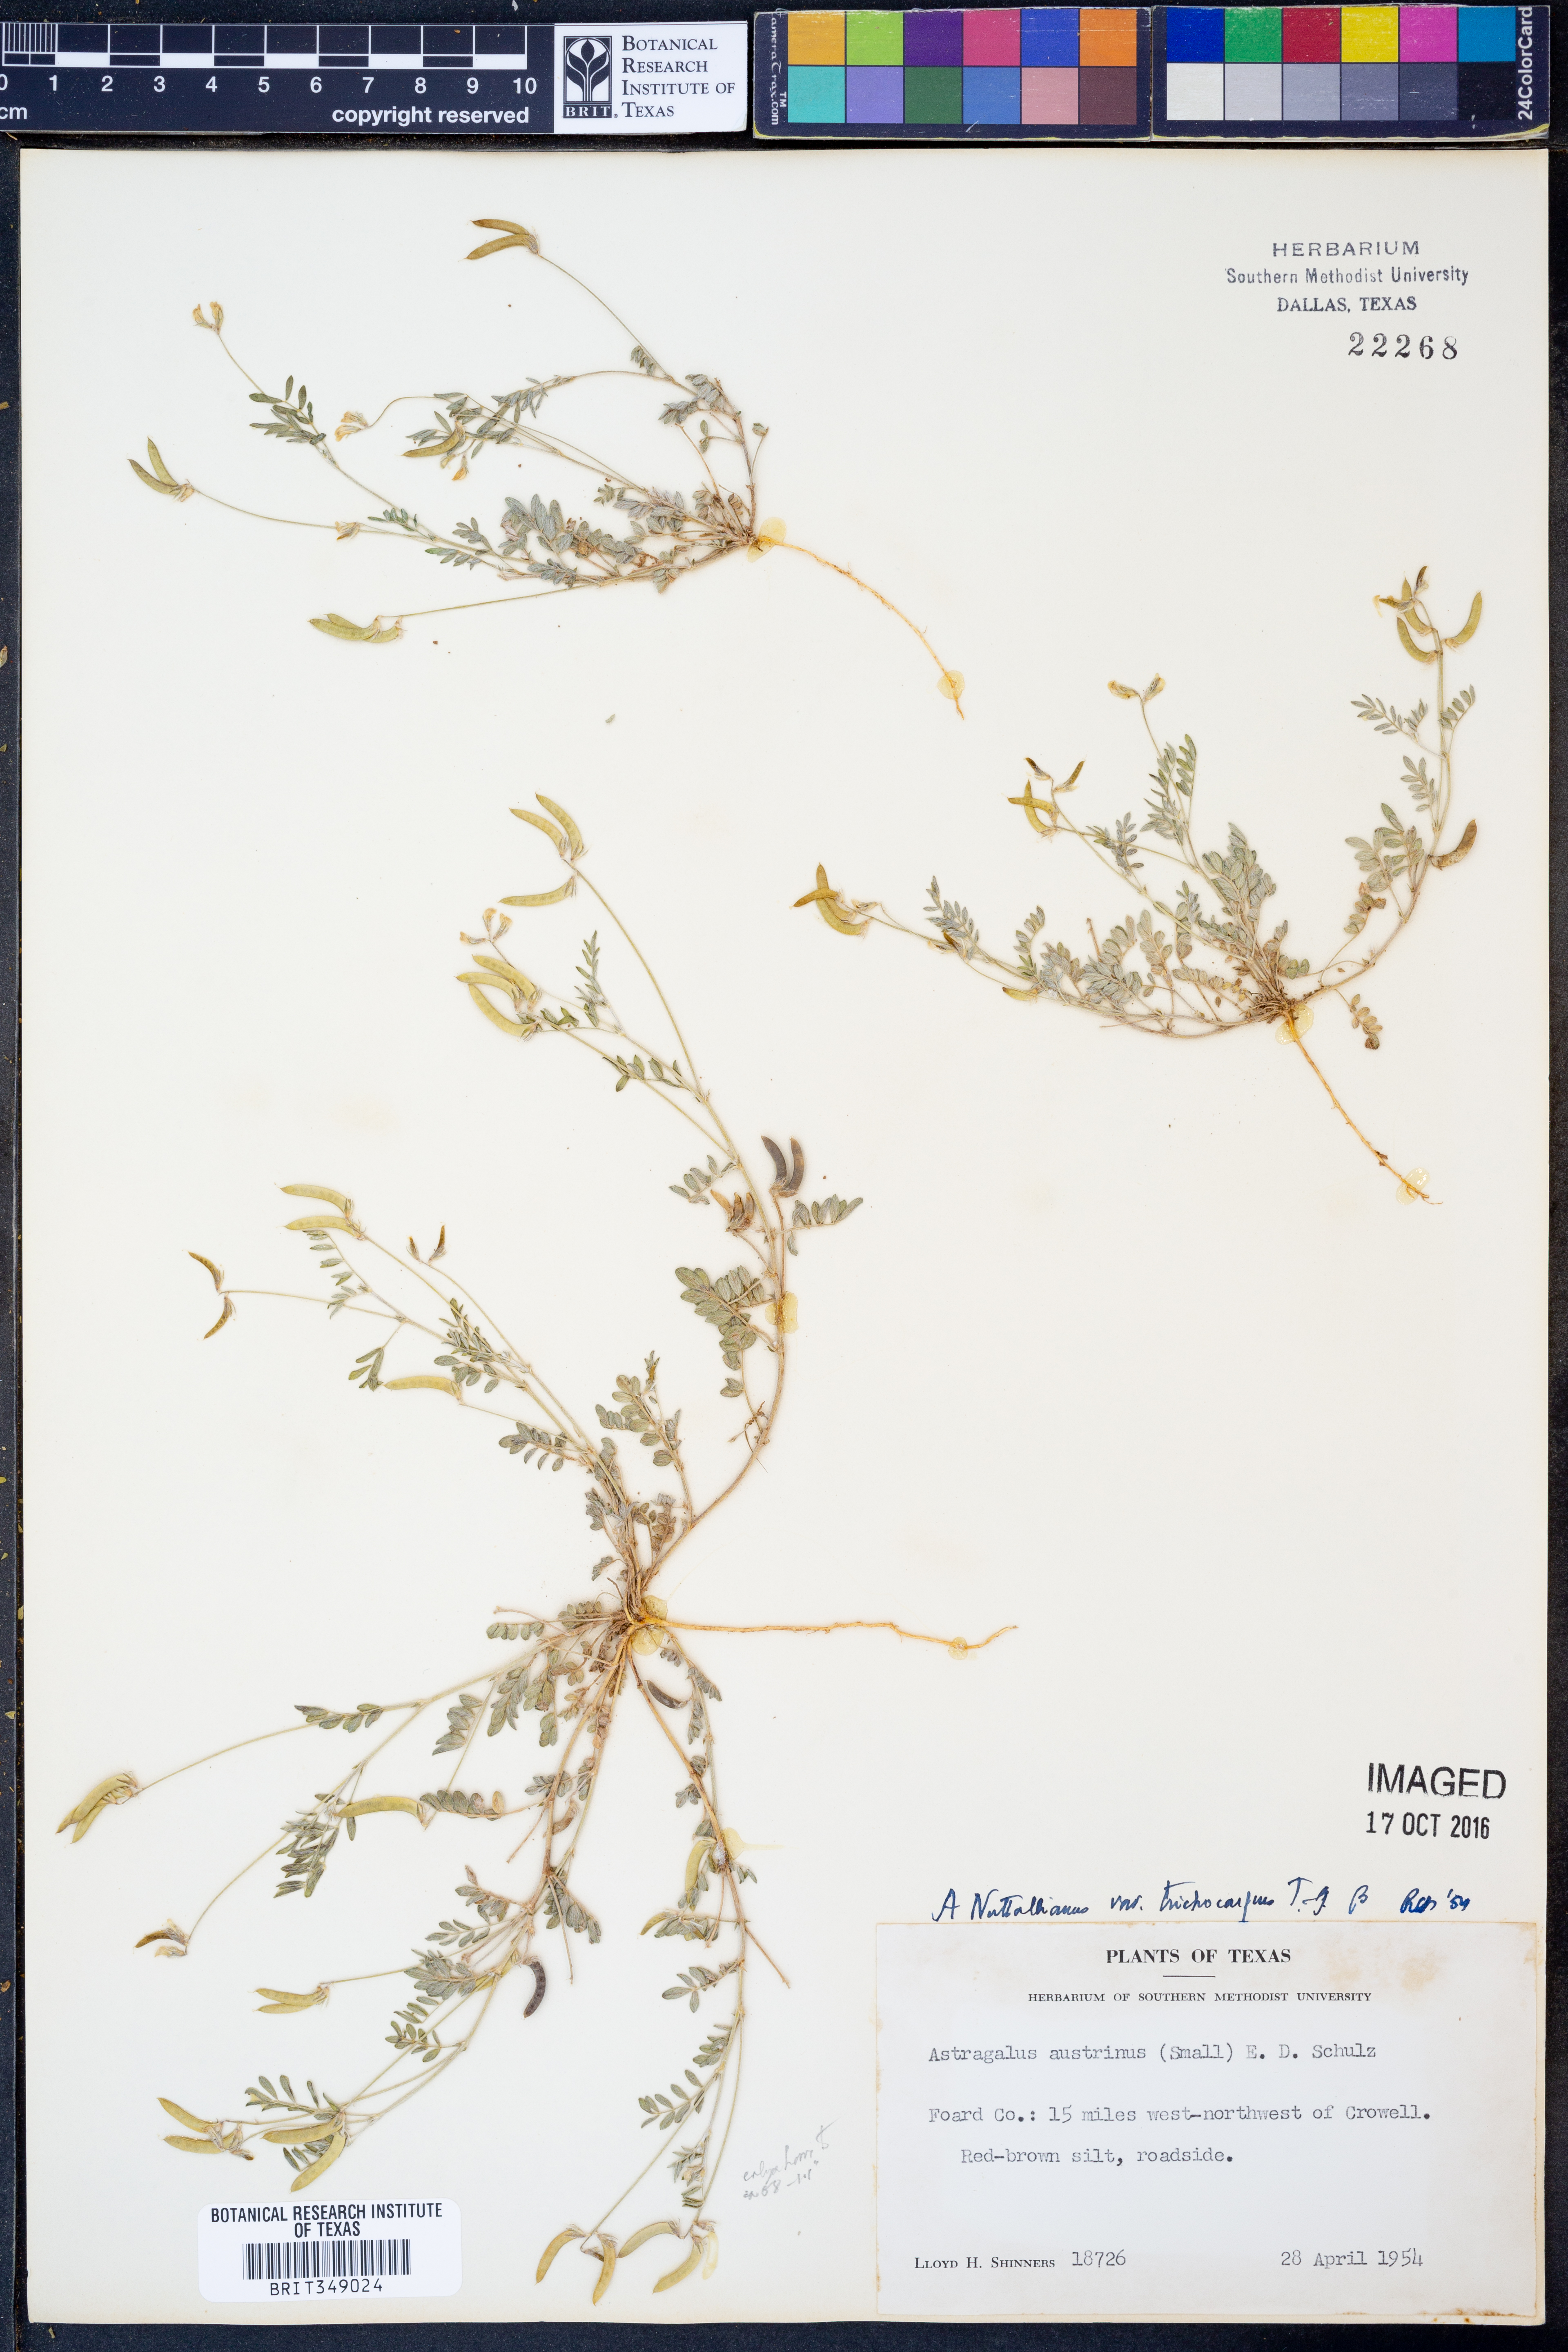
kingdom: Plantae
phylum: Tracheophyta
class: Magnoliopsida
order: Fabales
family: Fabaceae
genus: Astragalus
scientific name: Astragalus nuttallianus
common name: Smallflowered milkvetch
